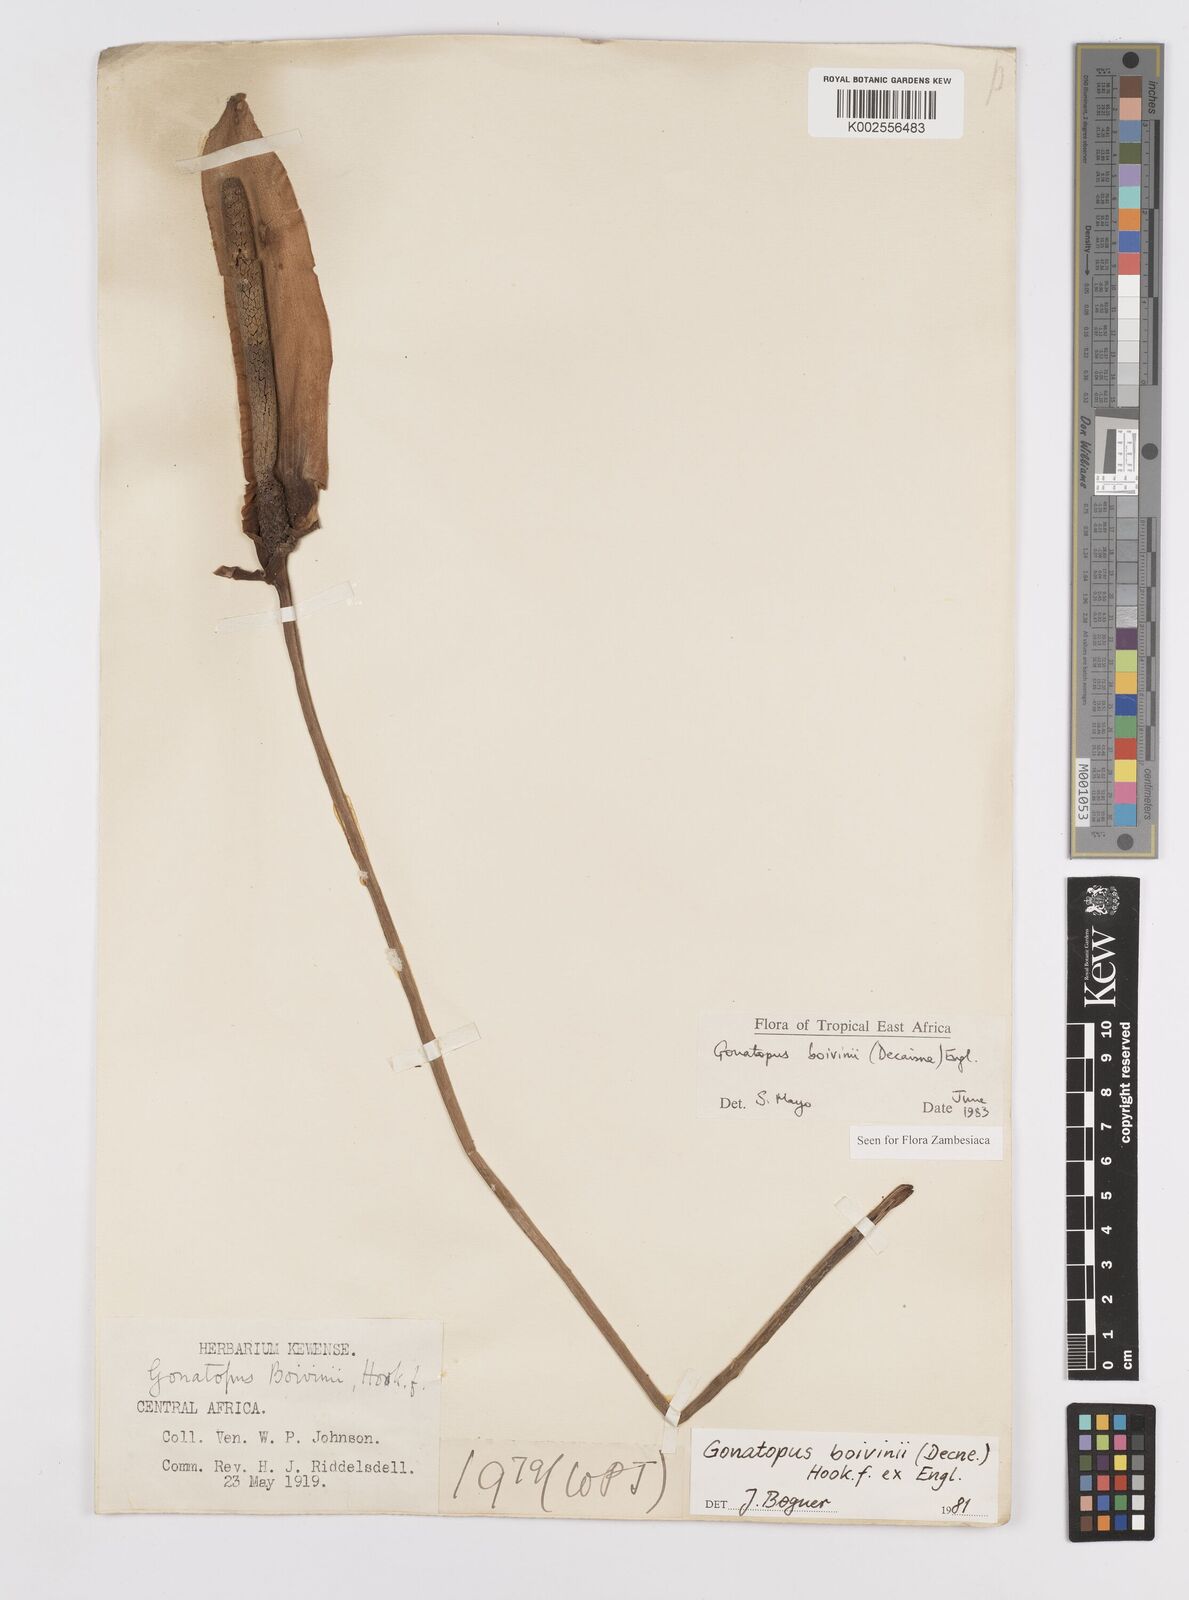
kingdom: Plantae
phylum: Tracheophyta
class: Liliopsida
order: Alismatales
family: Araceae
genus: Gonatopus
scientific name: Gonatopus boivinii
